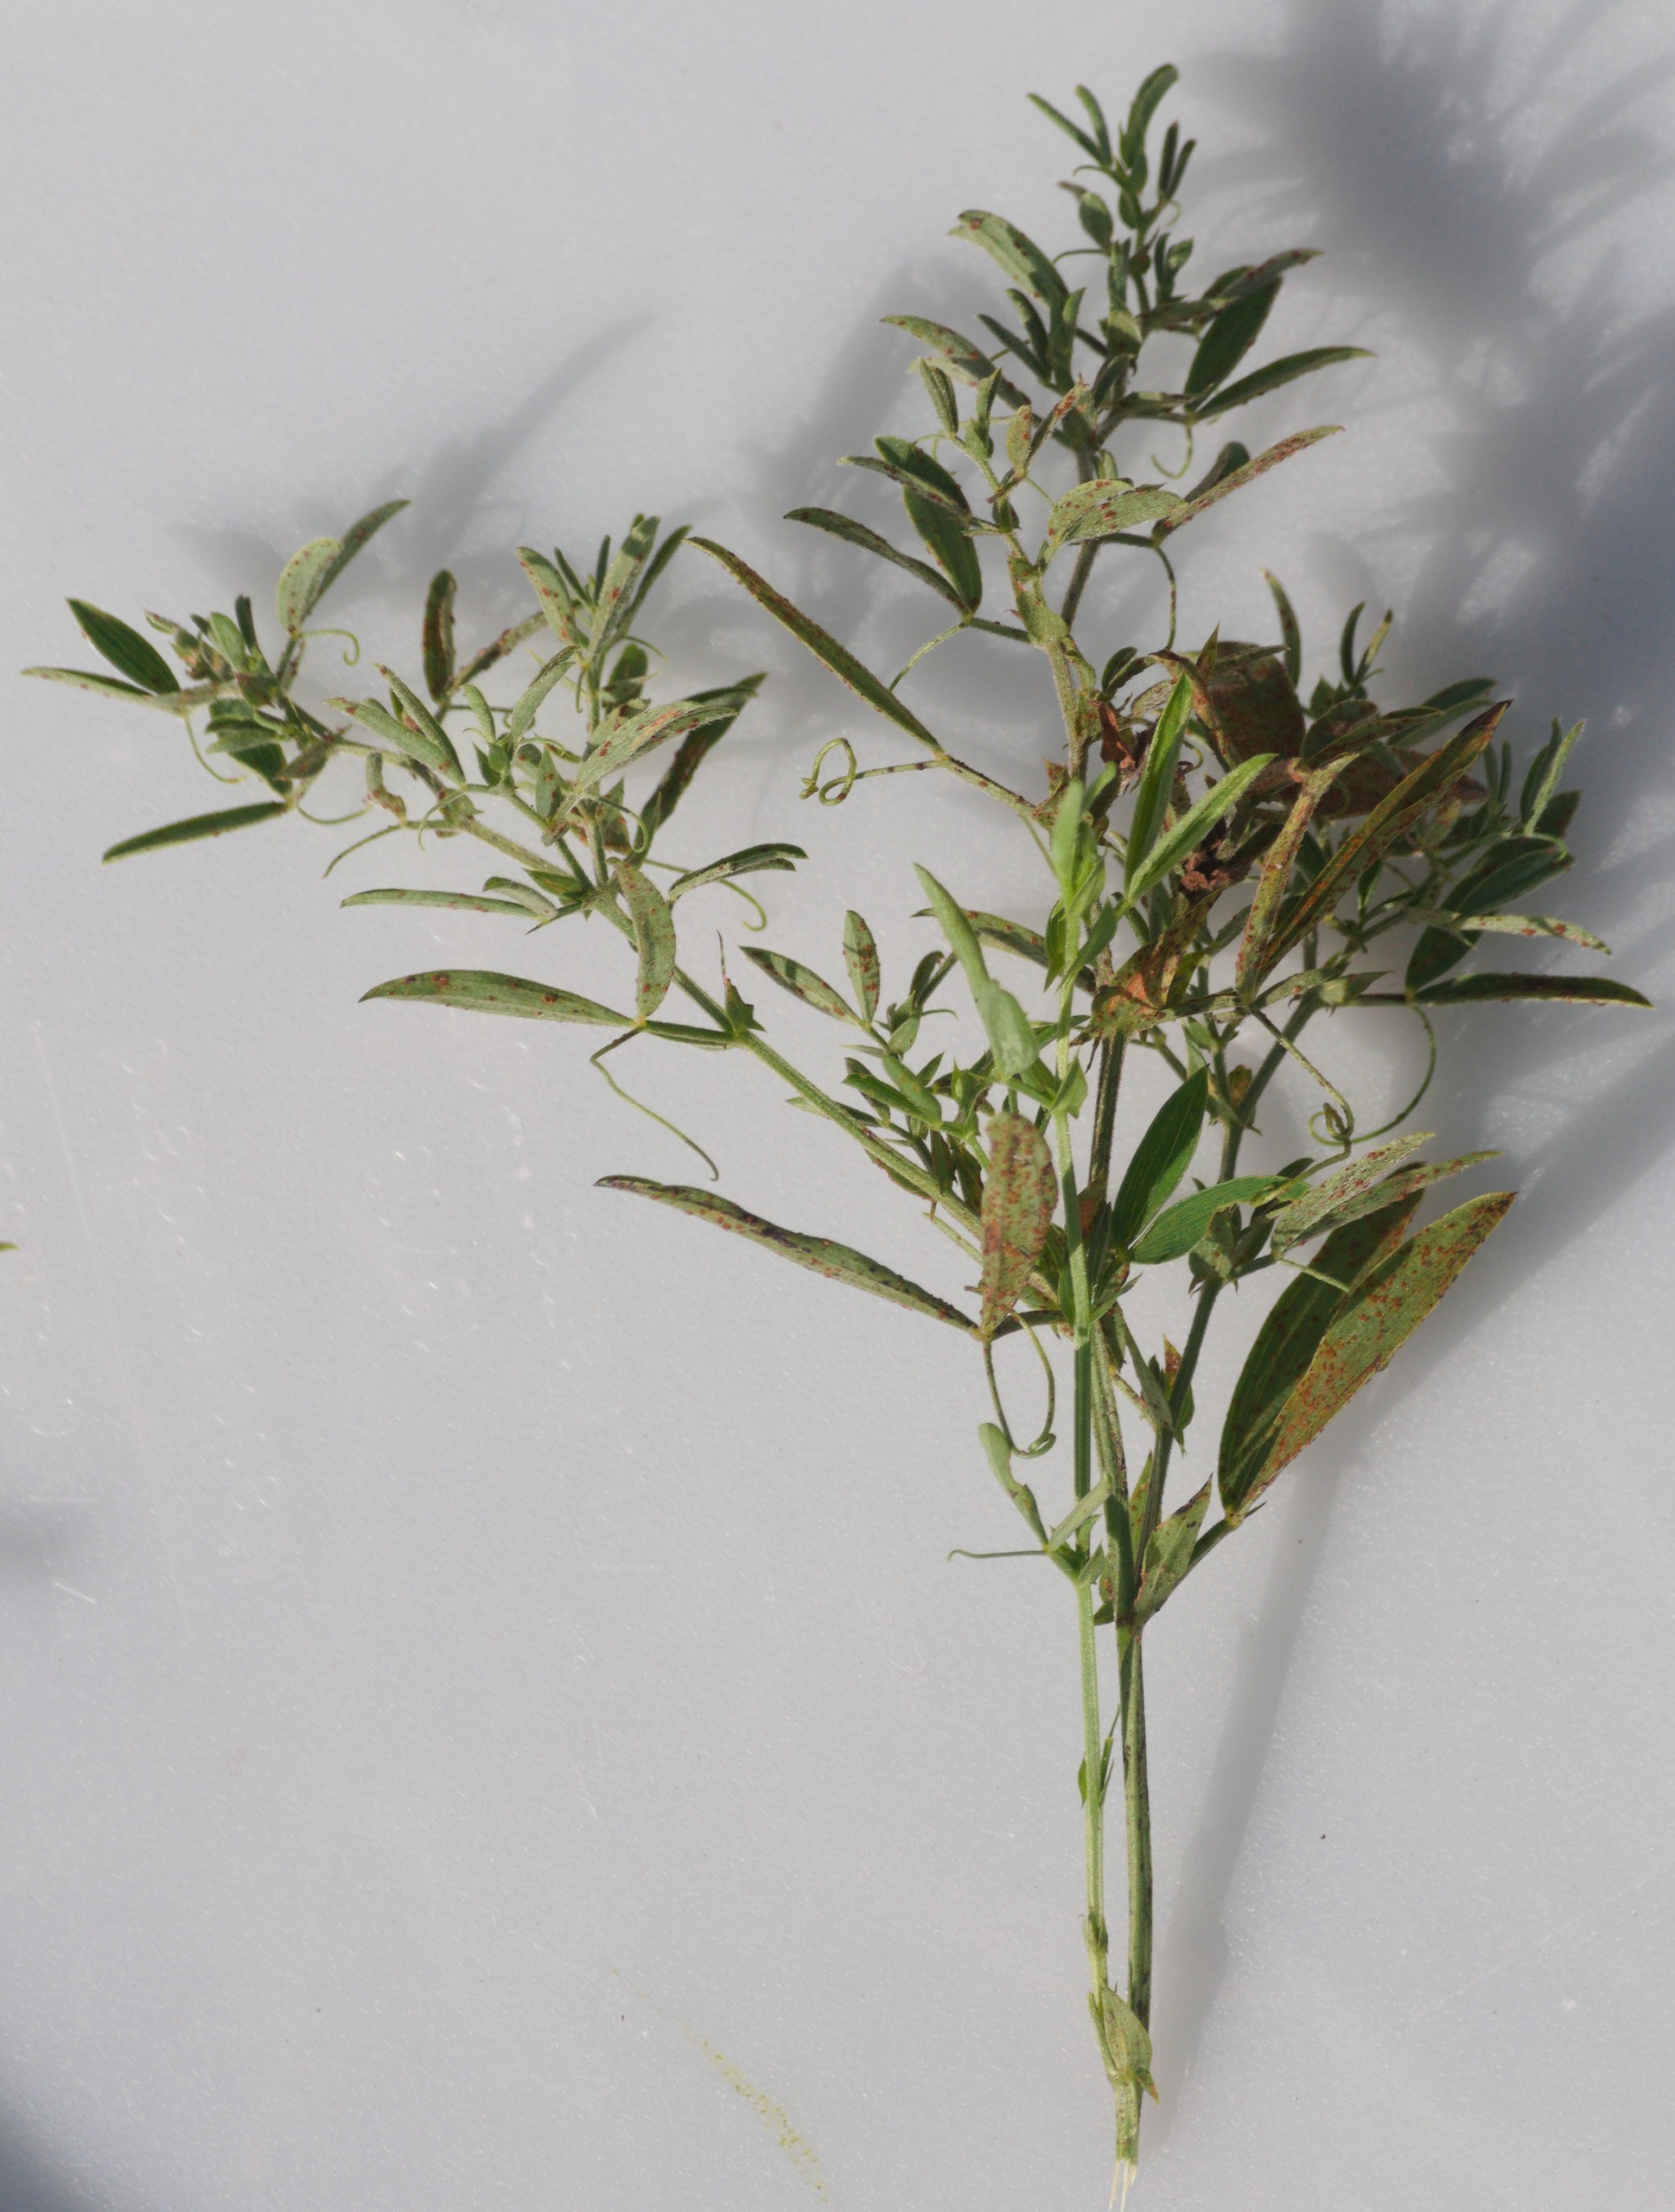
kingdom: Plantae
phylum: Tracheophyta
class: Magnoliopsida
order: Fabales
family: Fabaceae
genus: Lathyrus
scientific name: Lathyrus pratensis
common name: Gul fladbælg
